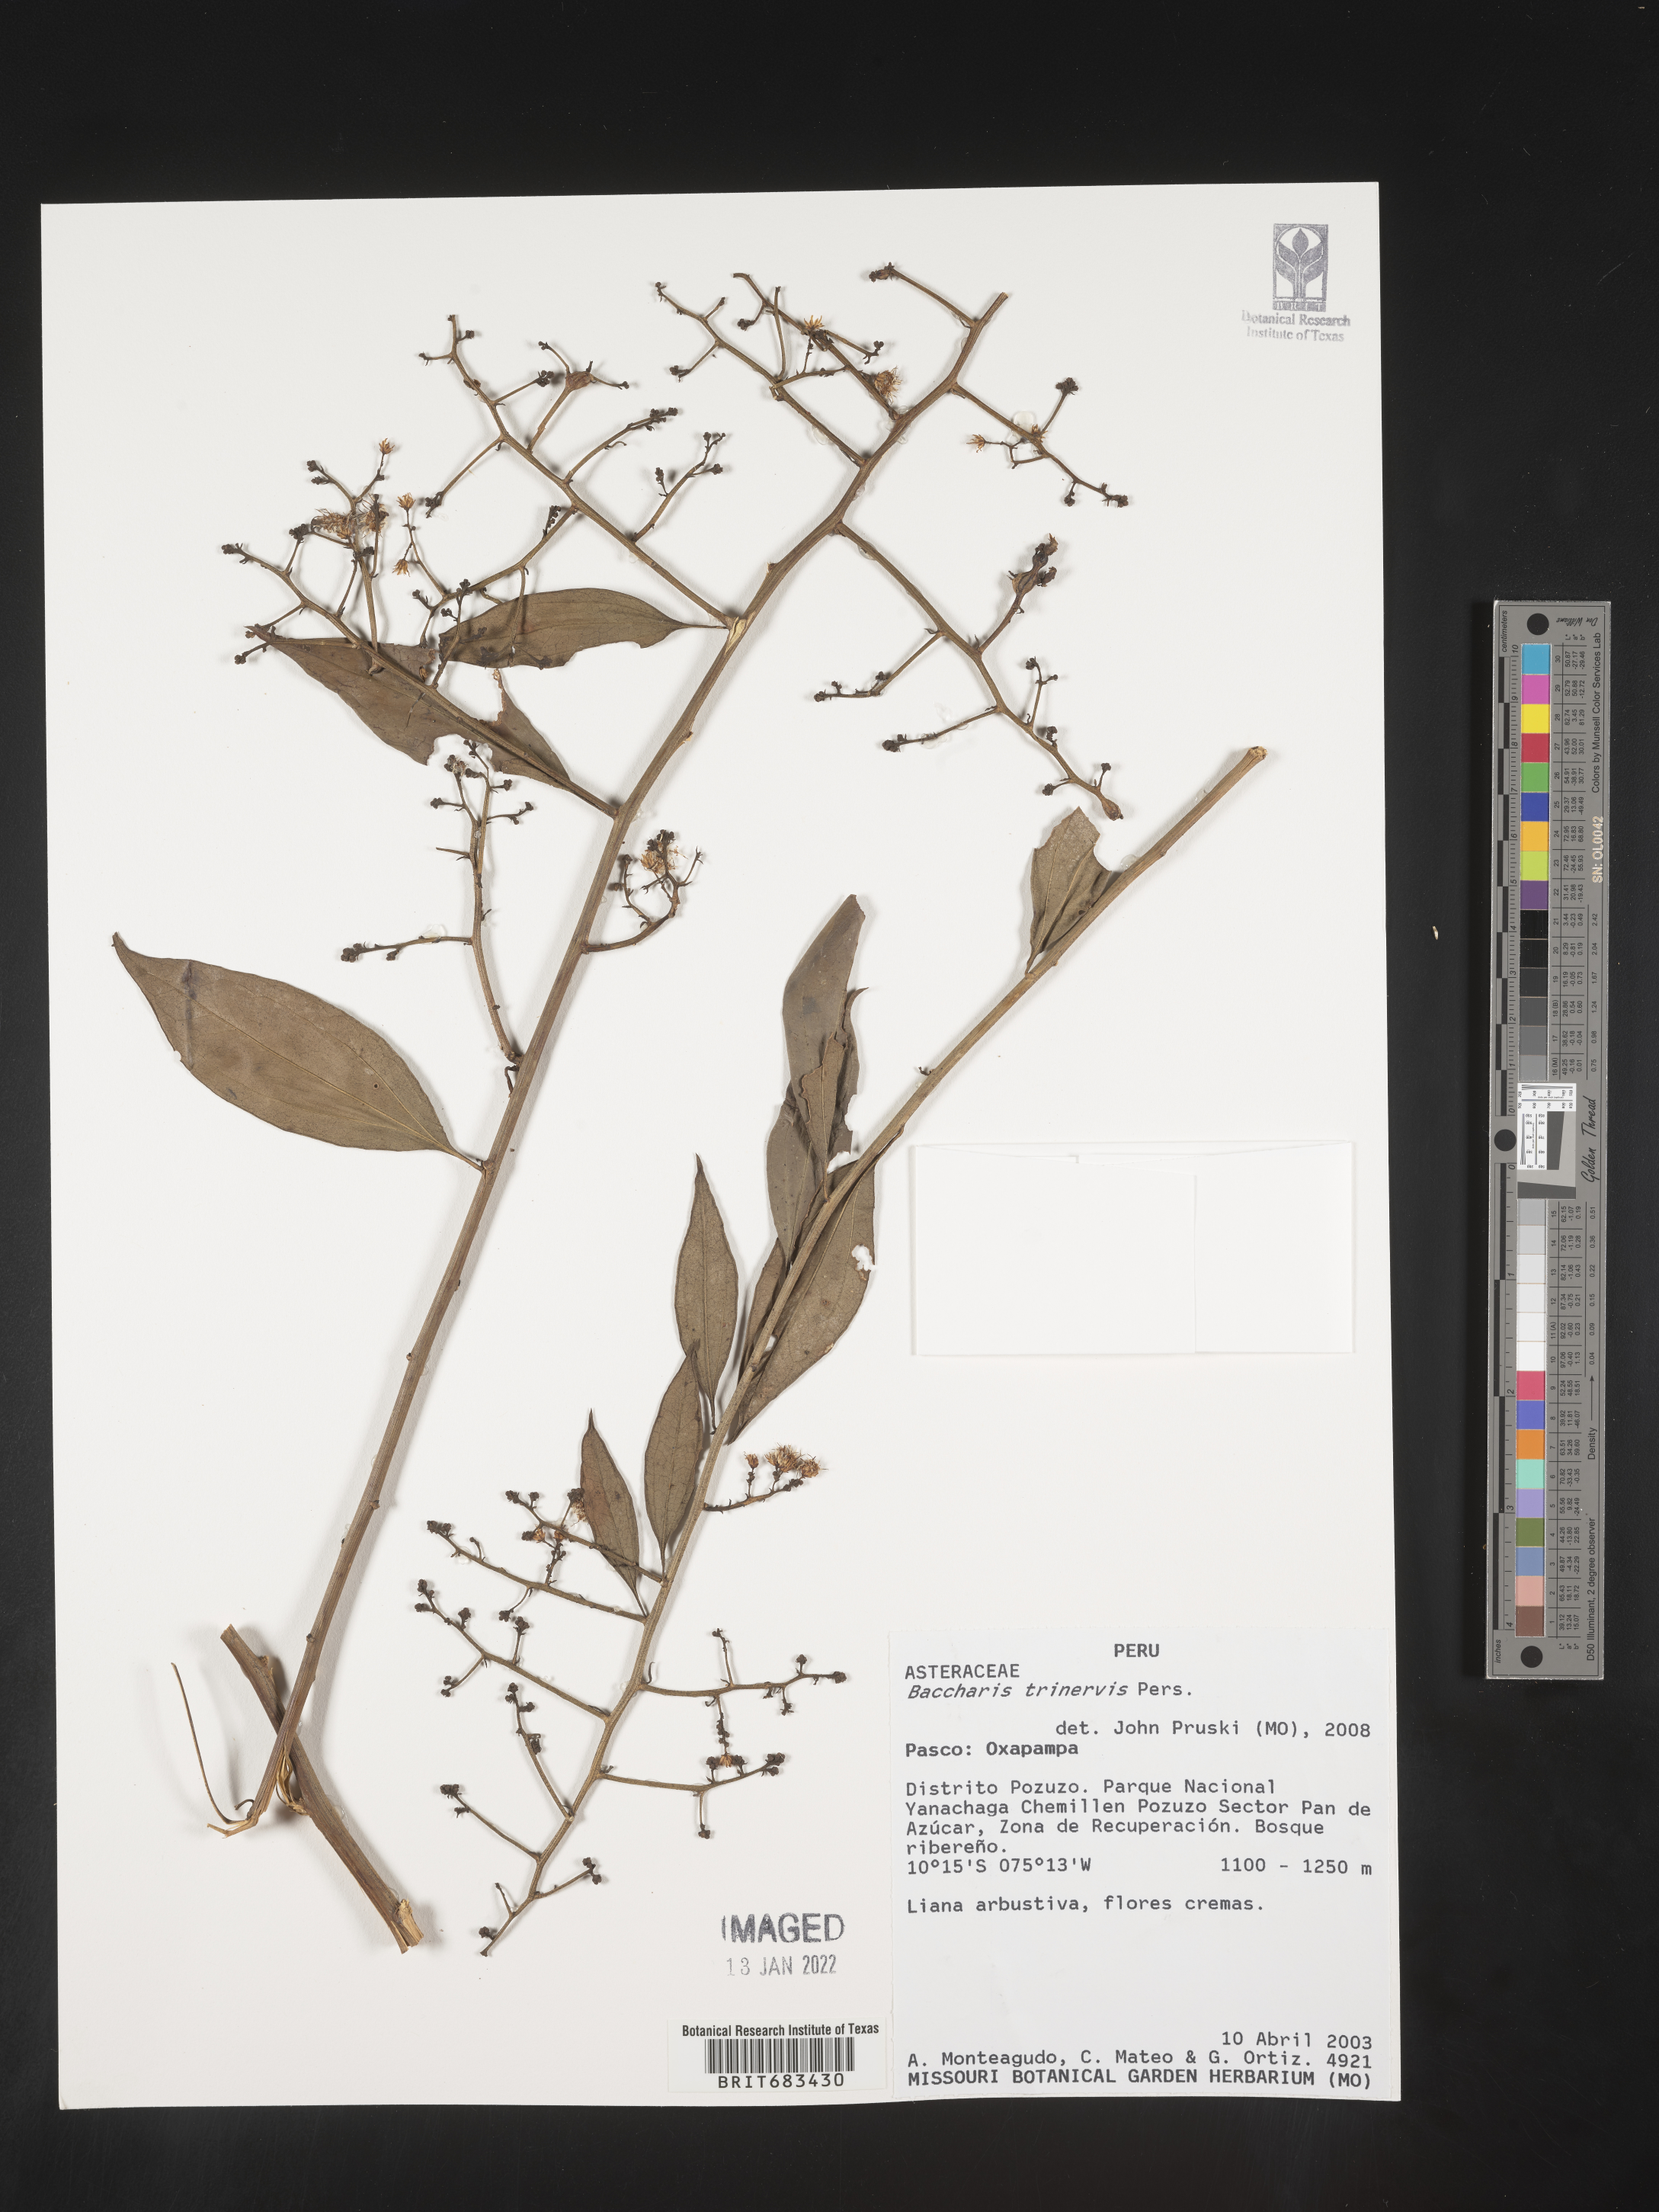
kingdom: Plantae
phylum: Tracheophyta
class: Magnoliopsida
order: Asterales
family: Asteraceae
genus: Baccharis
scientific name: Baccharis trinervis
